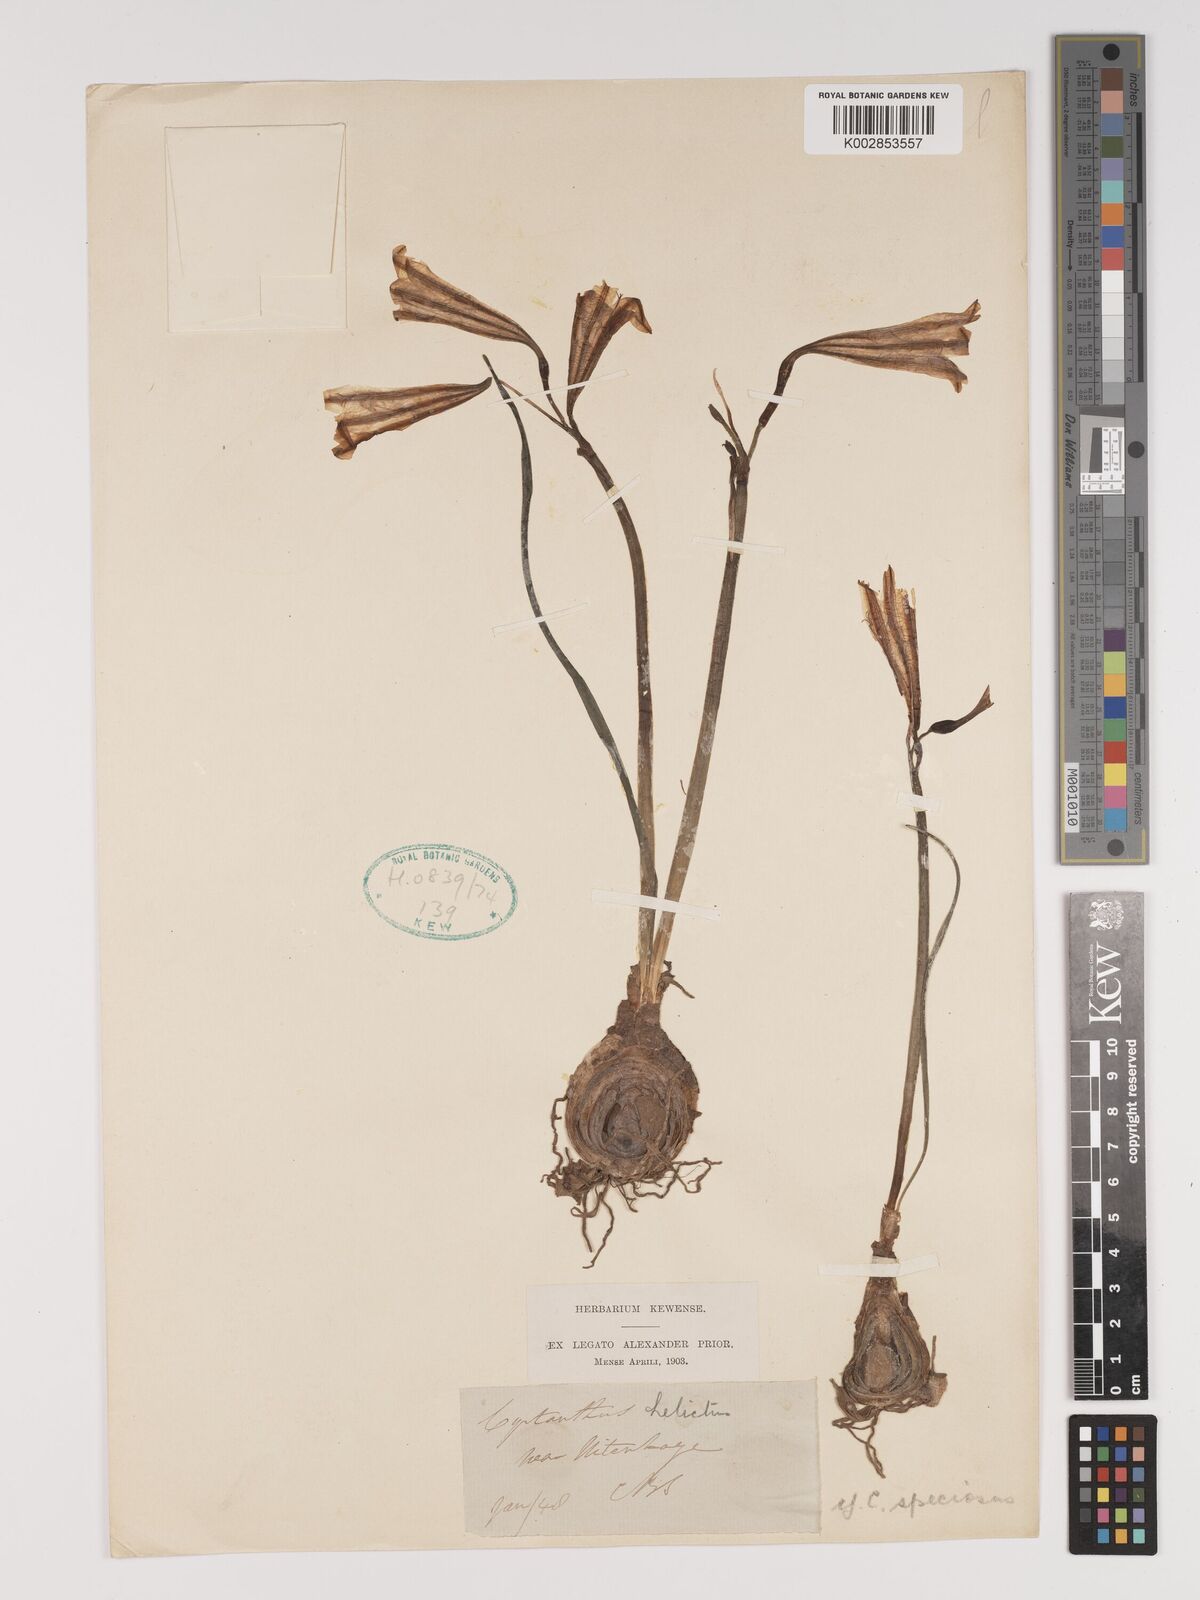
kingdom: Plantae
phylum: Tracheophyta
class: Liliopsida
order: Asparagales
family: Amaryllidaceae
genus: Cyrtanthus
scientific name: Cyrtanthus loddigesianus
